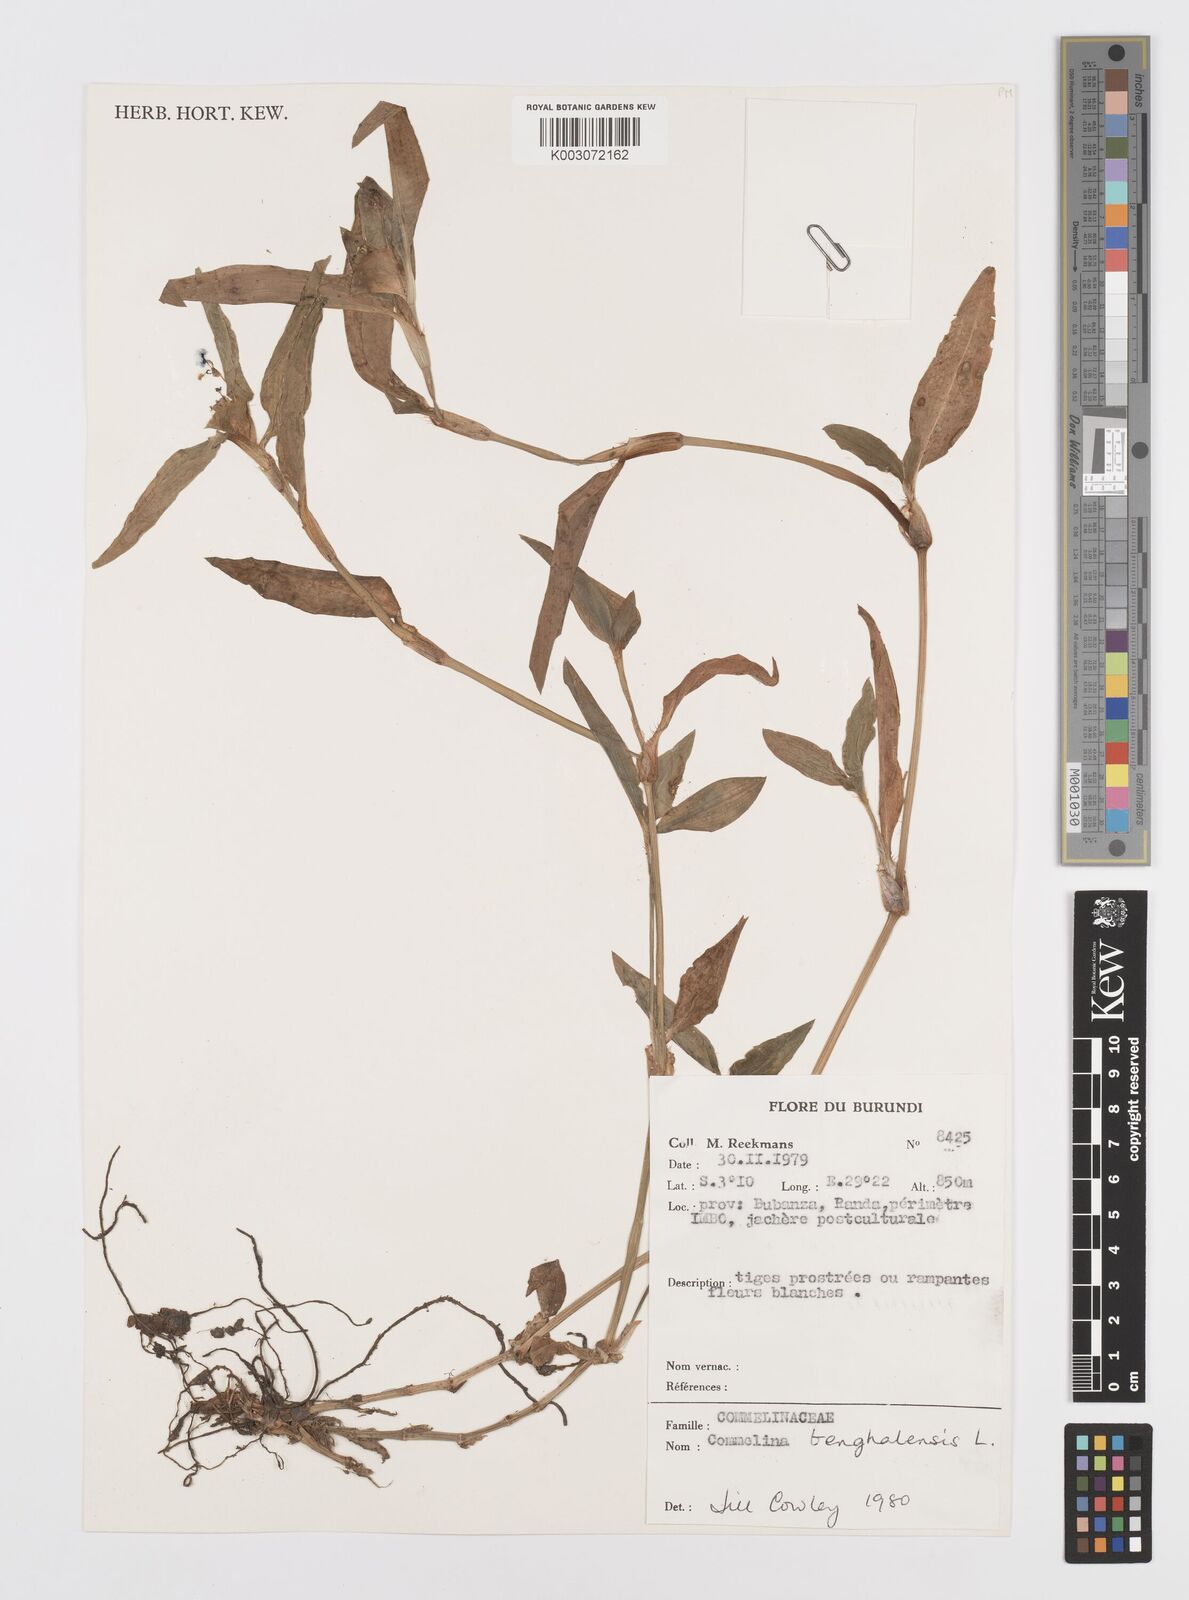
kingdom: Plantae
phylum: Tracheophyta
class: Liliopsida
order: Commelinales
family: Commelinaceae
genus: Commelina
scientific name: Commelina benghalensis
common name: Jio
